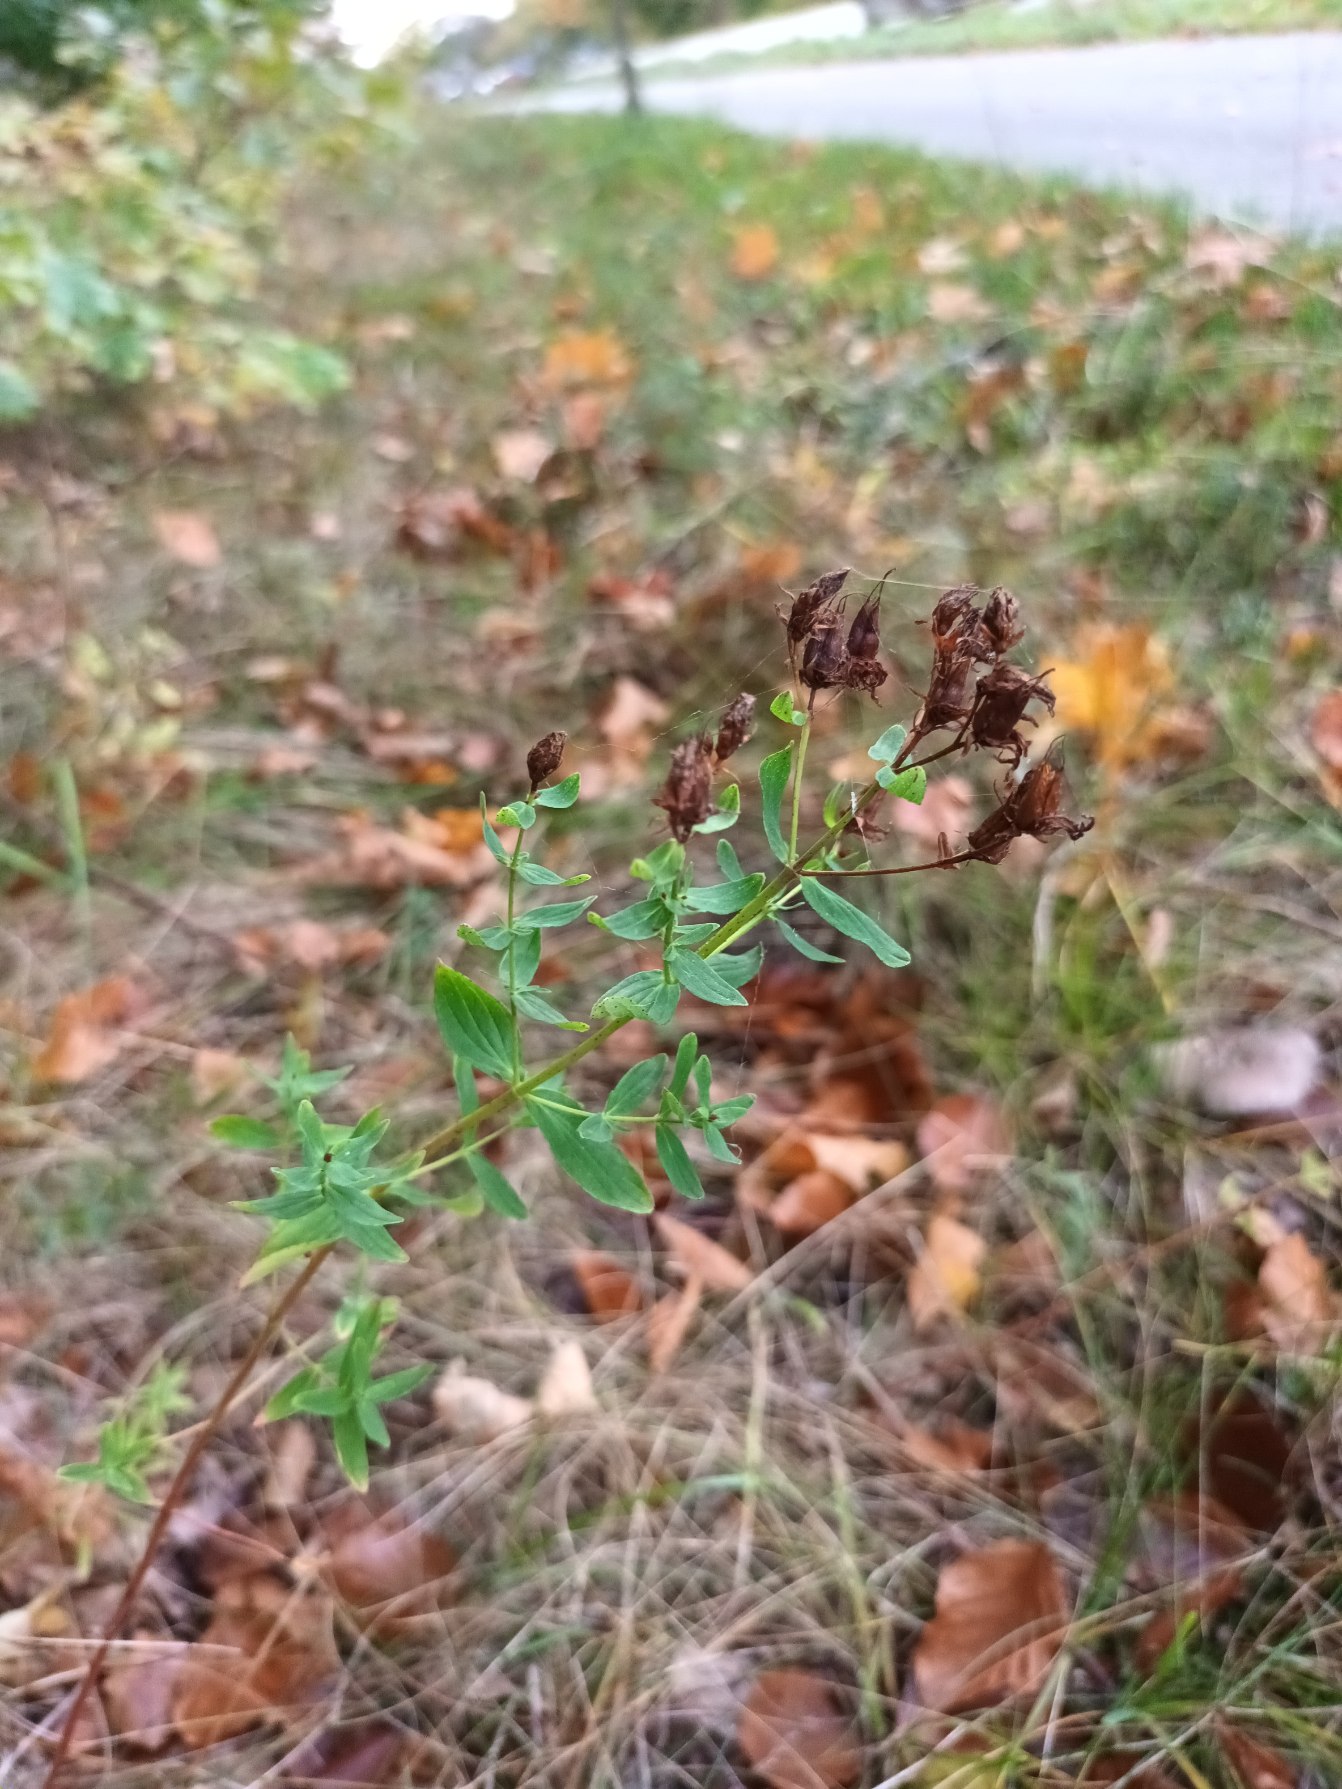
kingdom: Plantae
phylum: Tracheophyta
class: Magnoliopsida
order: Malpighiales
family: Hypericaceae
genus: Hypericum
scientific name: Hypericum perforatum
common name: Prikbladet perikon
